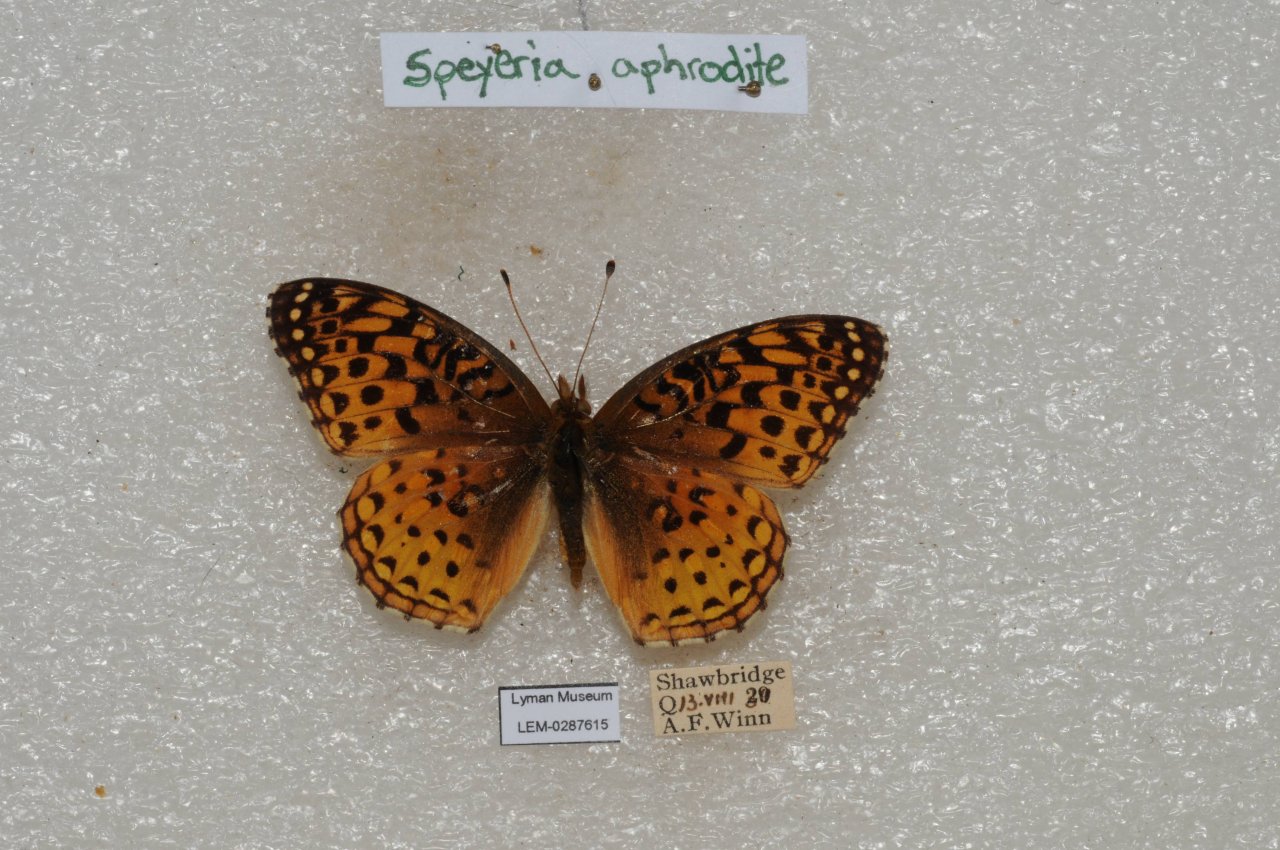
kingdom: Animalia
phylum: Arthropoda
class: Insecta
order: Lepidoptera
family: Nymphalidae
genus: Speyeria
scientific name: Speyeria aphrodite
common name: Aphrodite Fritillary
